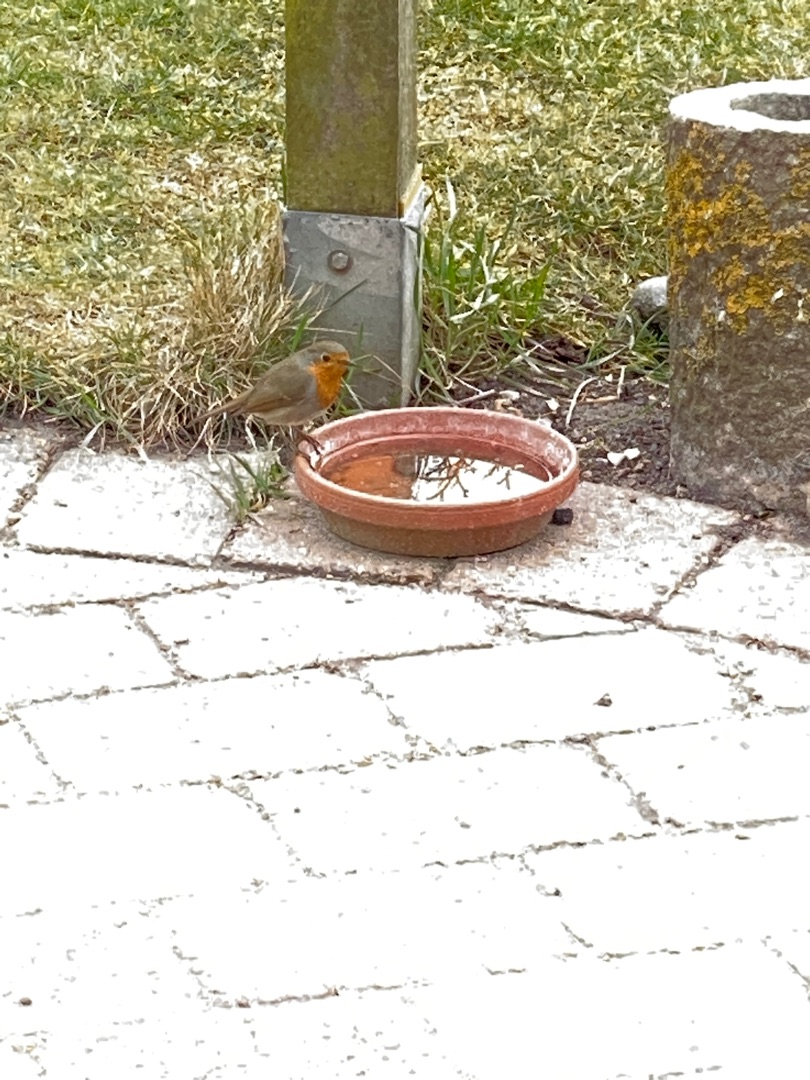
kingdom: Animalia
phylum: Chordata
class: Aves
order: Passeriformes
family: Muscicapidae
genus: Erithacus
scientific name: Erithacus rubecula
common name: Rødhals/rødkælk
